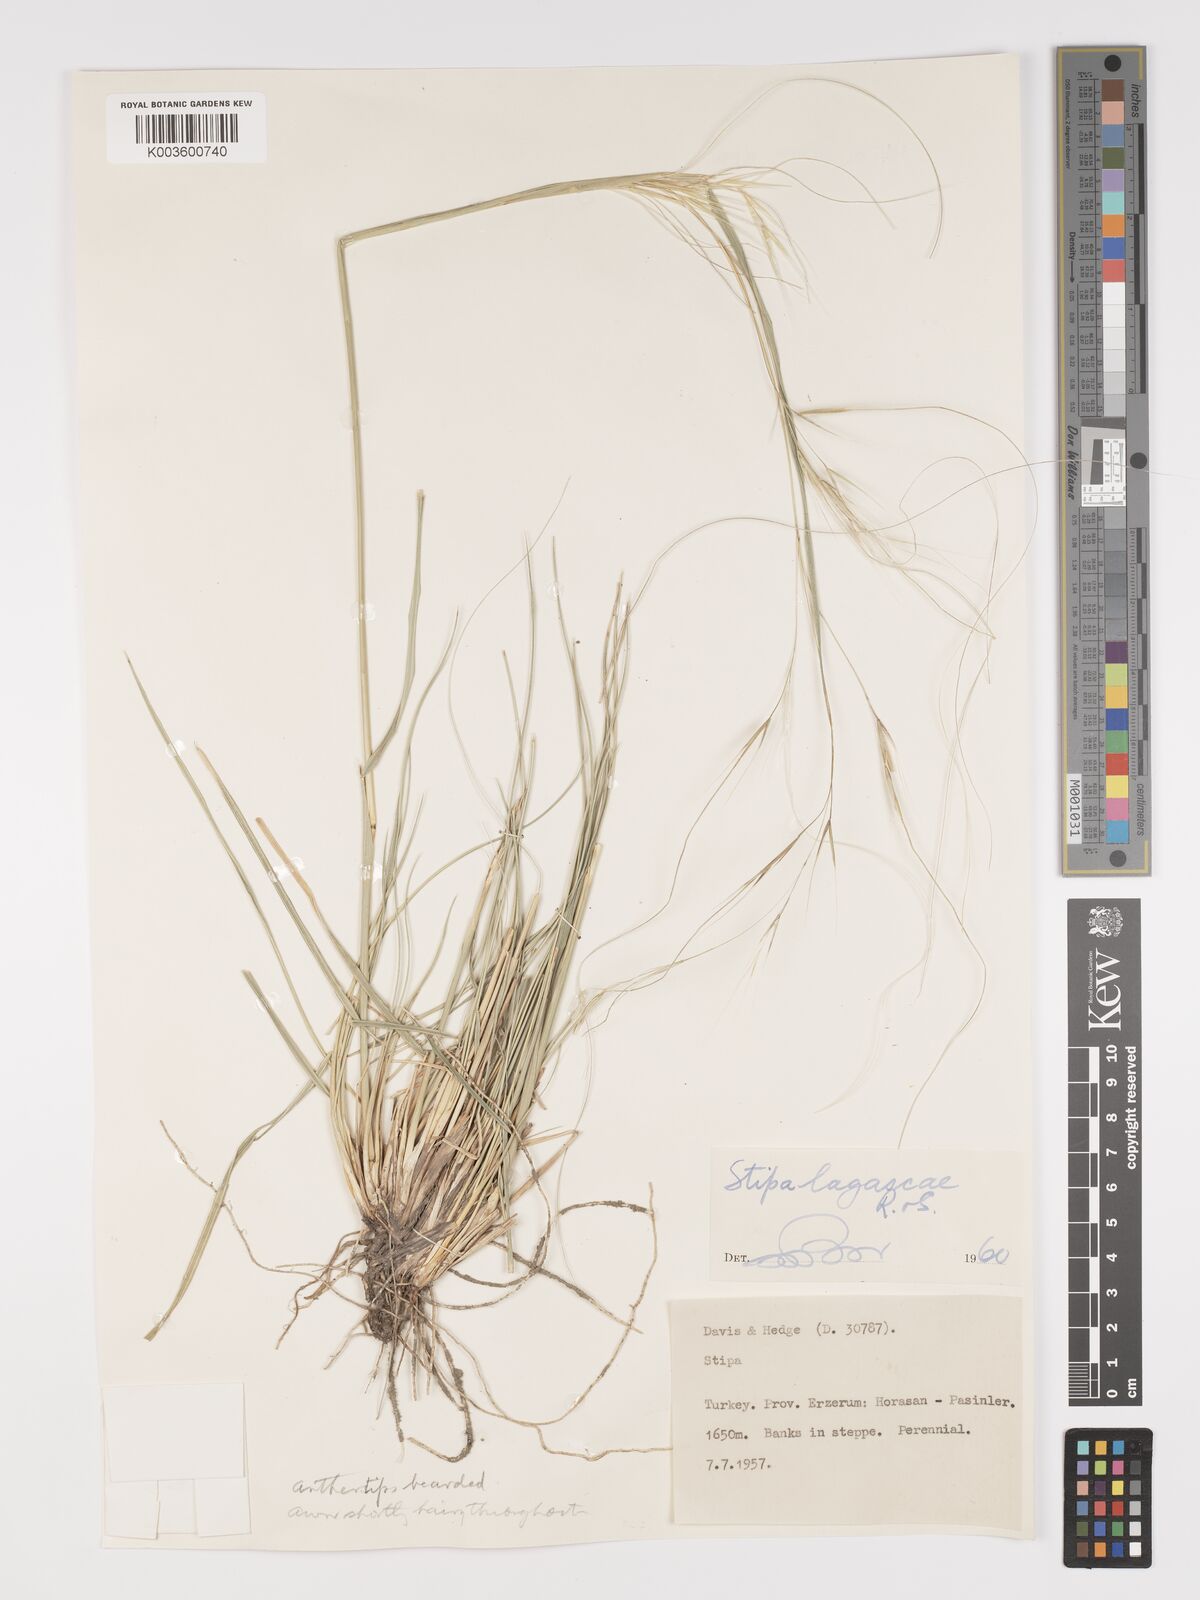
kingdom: Plantae
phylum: Tracheophyta
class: Liliopsida
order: Poales
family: Poaceae
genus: Stipa
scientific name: Stipa lagascae
